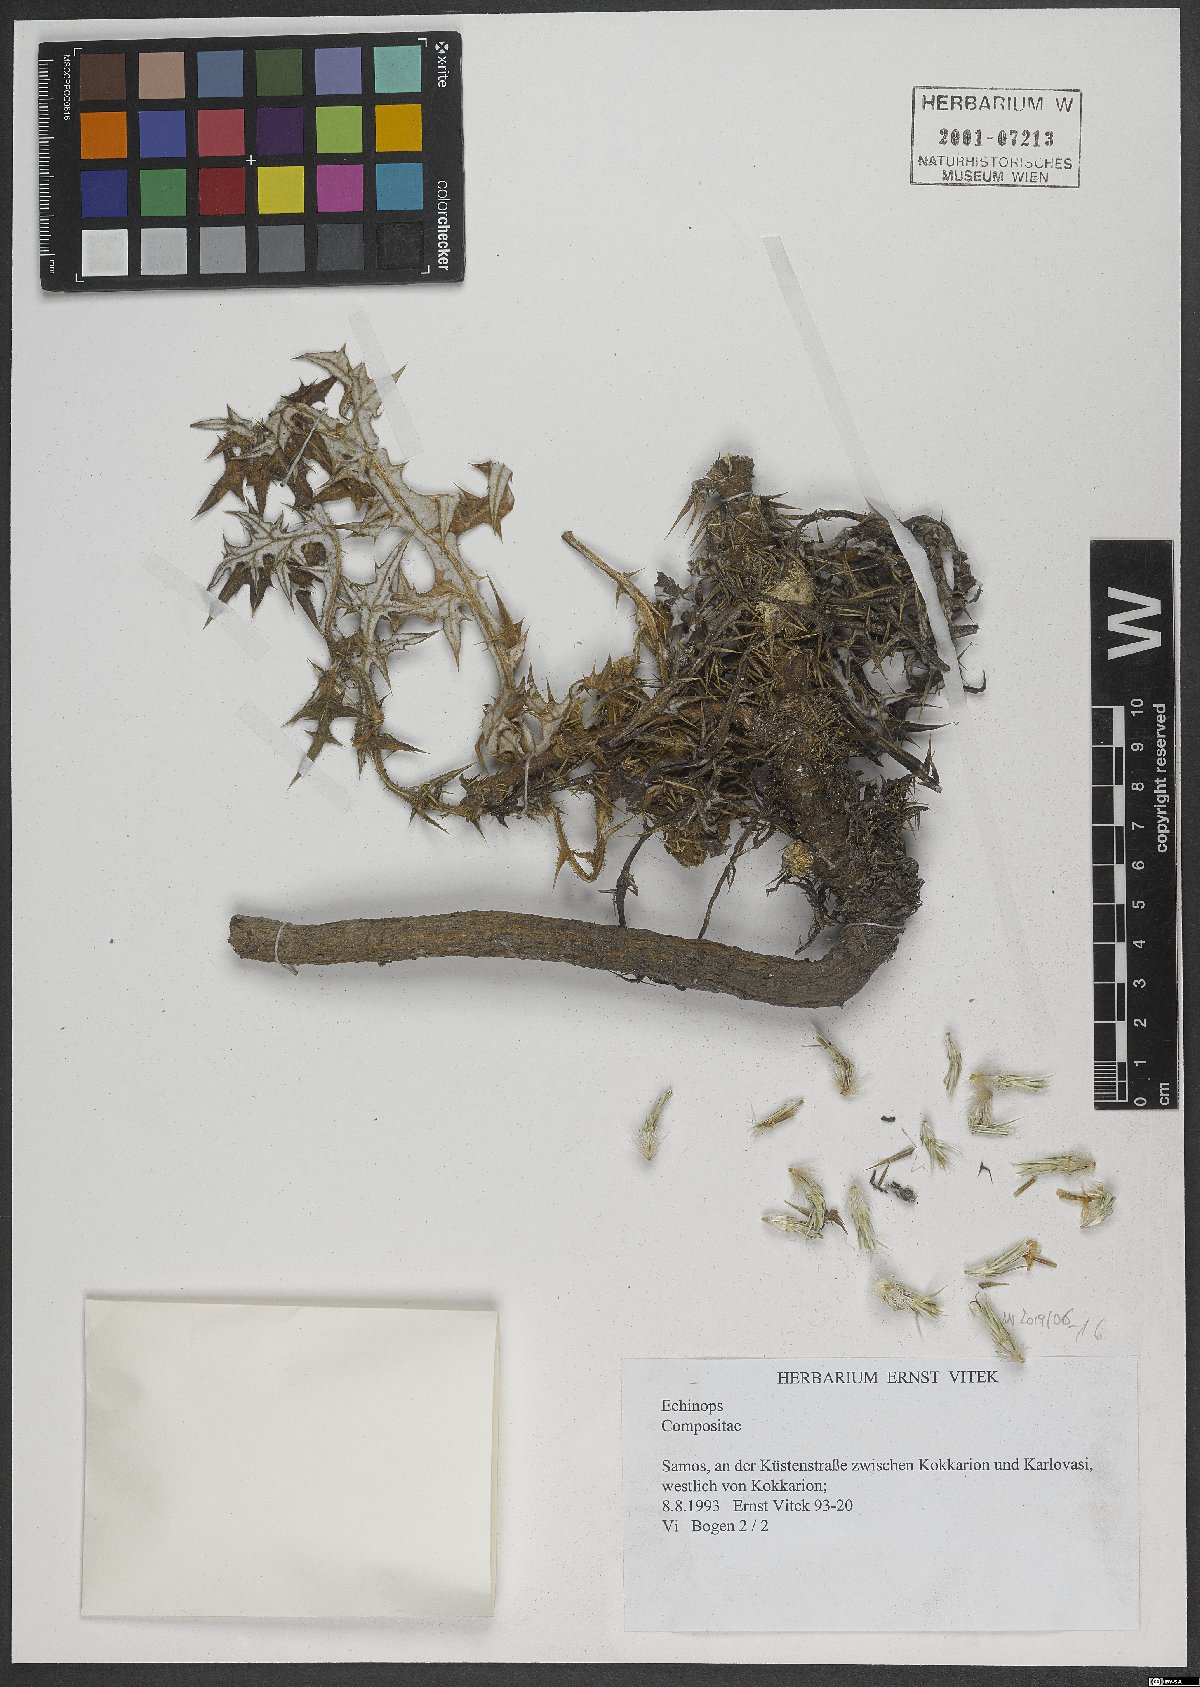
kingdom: Plantae
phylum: Tracheophyta
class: Magnoliopsida
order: Asterales
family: Asteraceae
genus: Echinops
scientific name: Echinops spinosissimus
